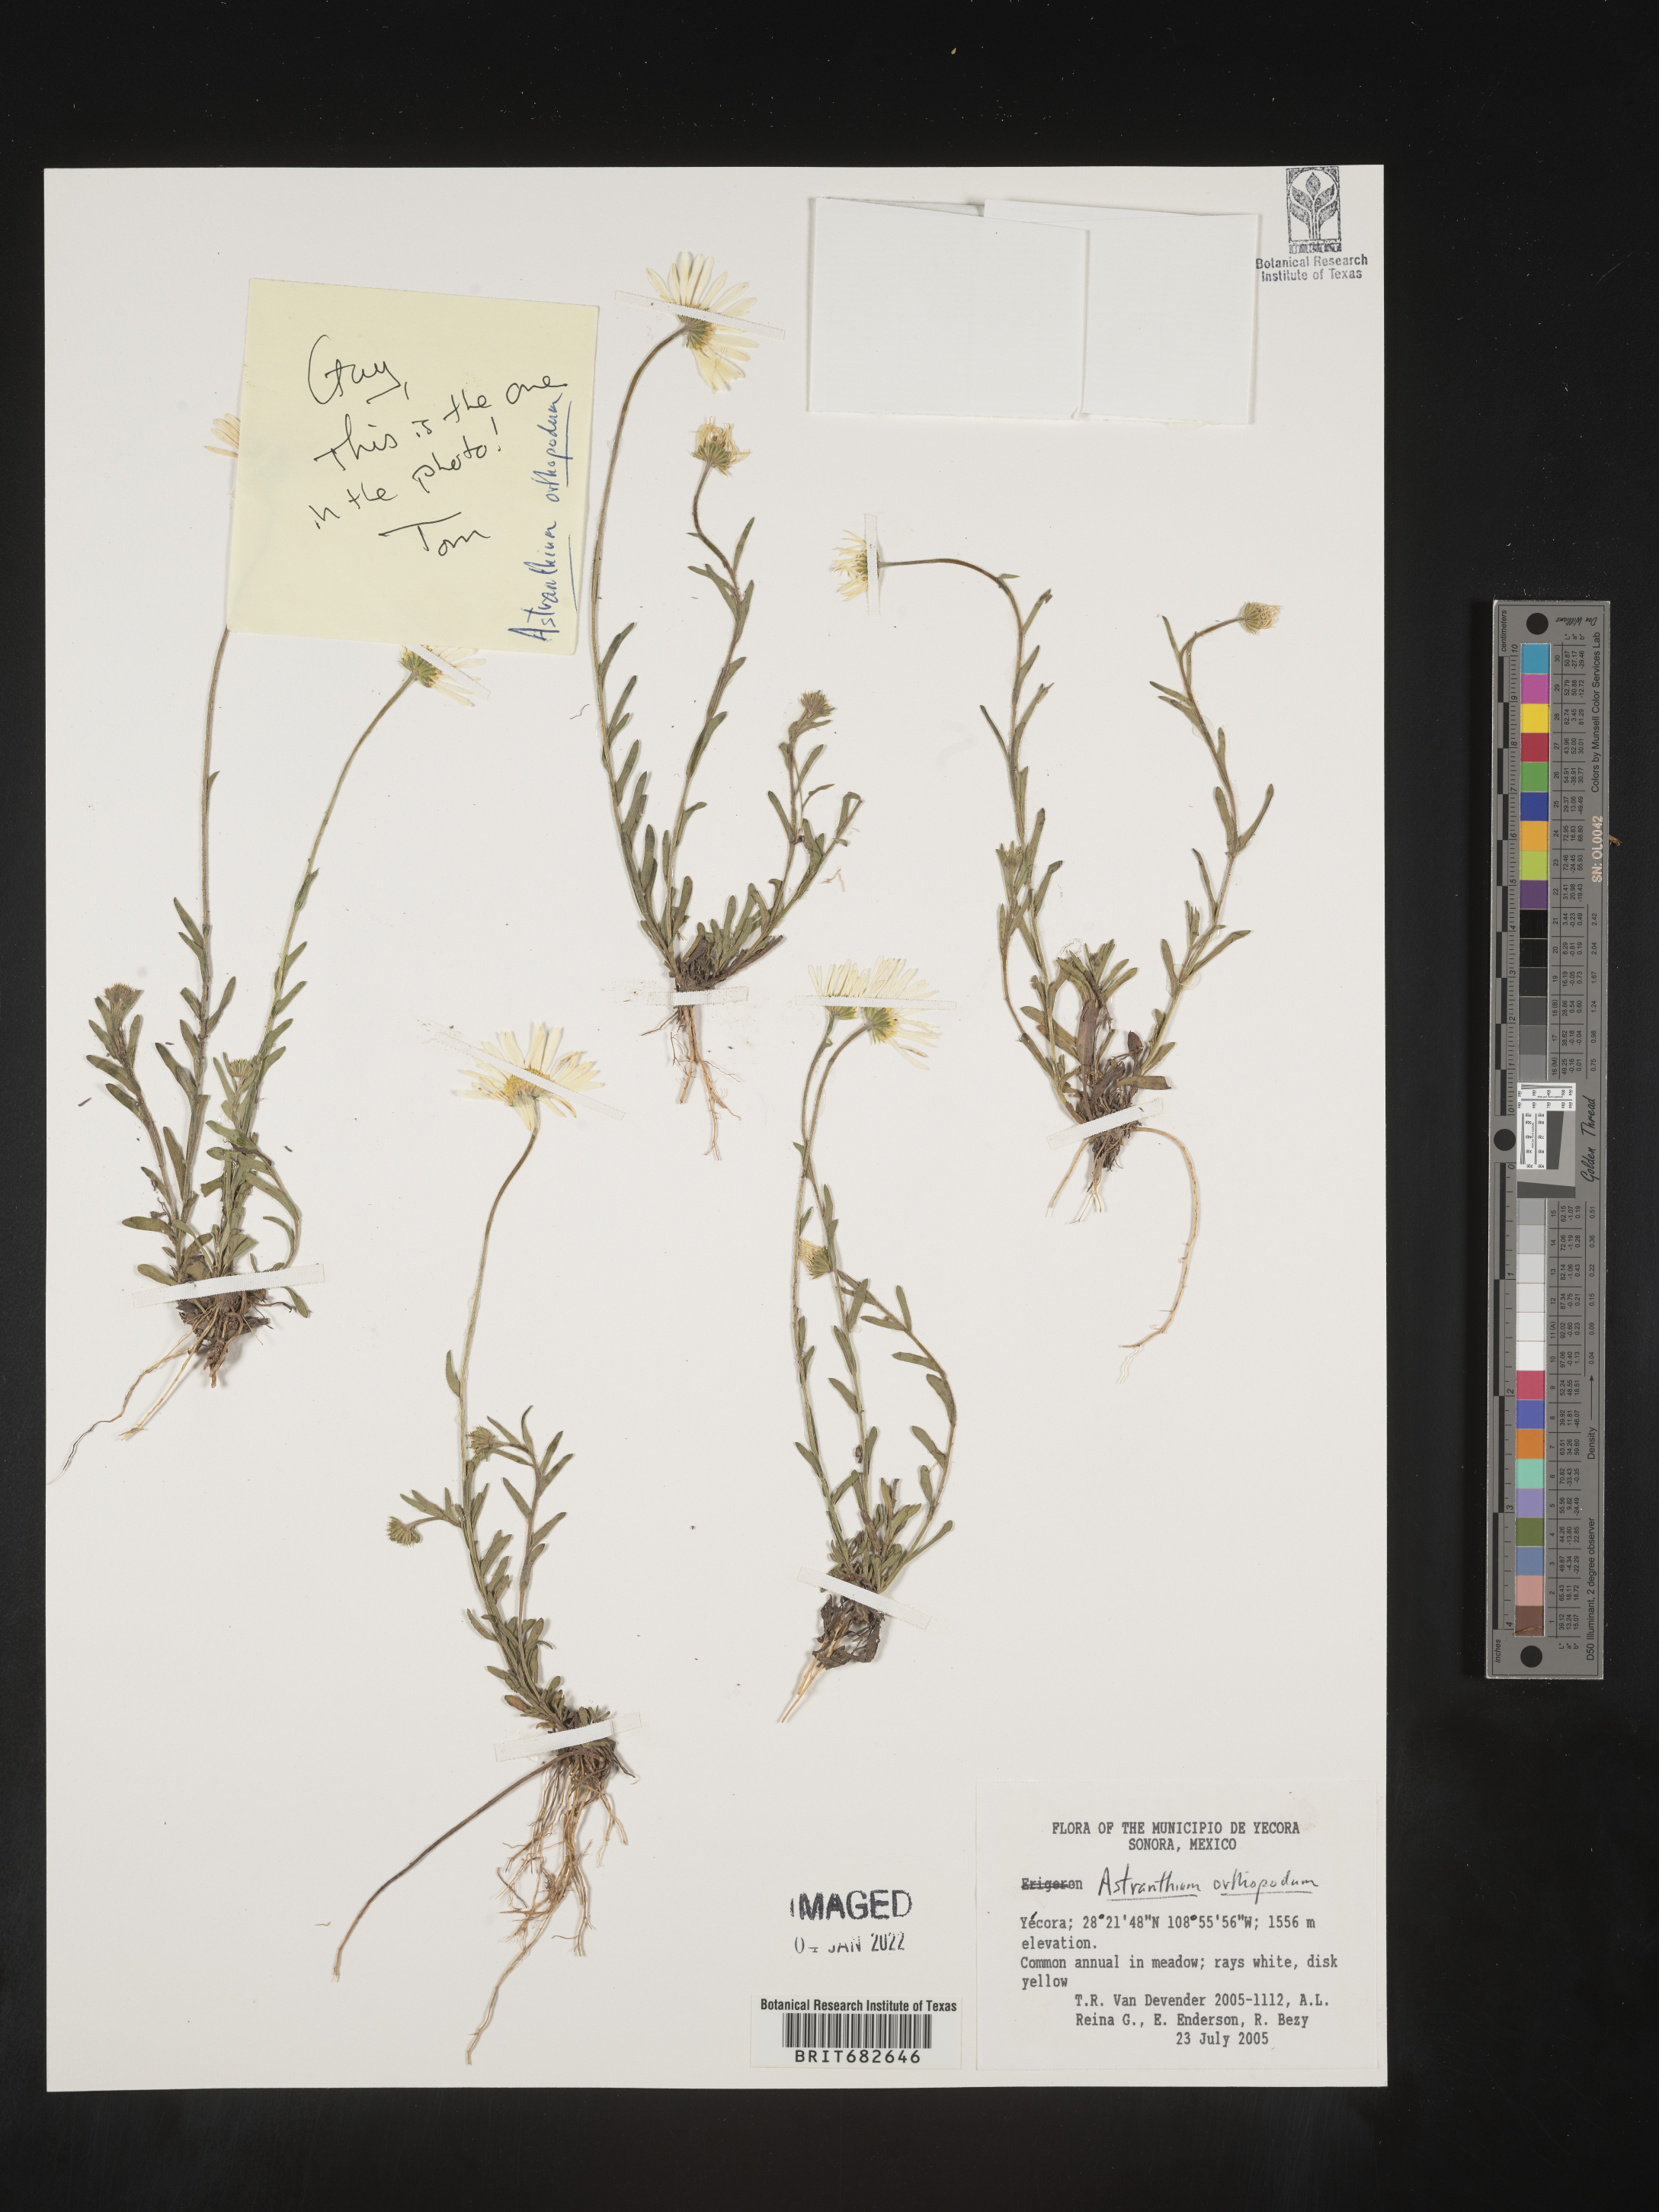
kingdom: Plantae
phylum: Tracheophyta
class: Magnoliopsida
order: Asterales
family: Asteraceae
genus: Astranthium
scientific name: Astranthium
